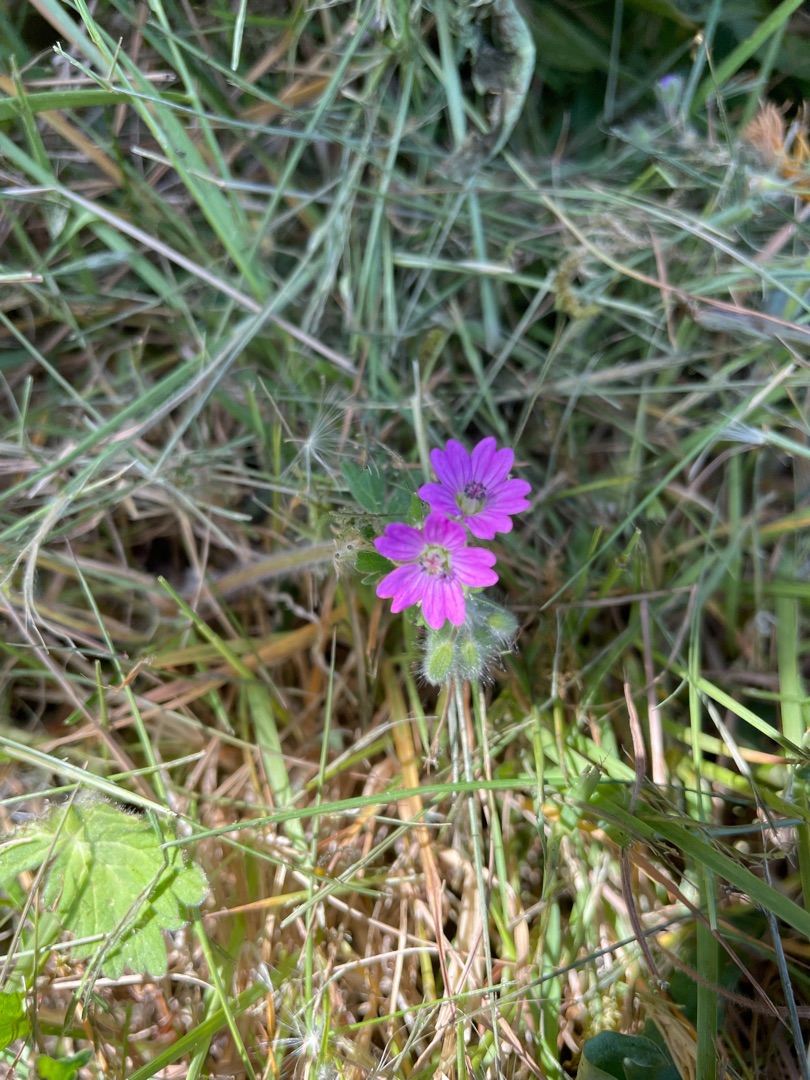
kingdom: Plantae
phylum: Tracheophyta
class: Magnoliopsida
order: Geraniales
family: Geraniaceae
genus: Geranium
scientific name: Geranium molle
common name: Blød storkenæb
